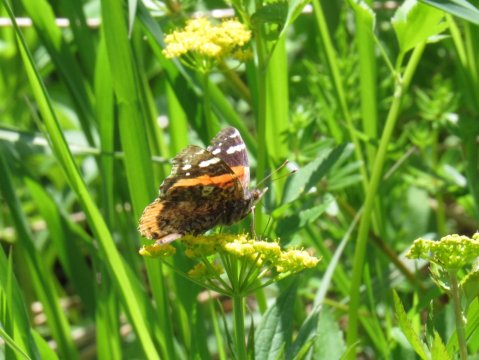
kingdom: Animalia
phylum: Arthropoda
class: Insecta
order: Lepidoptera
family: Nymphalidae
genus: Vanessa
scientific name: Vanessa atalanta
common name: Red Admiral
